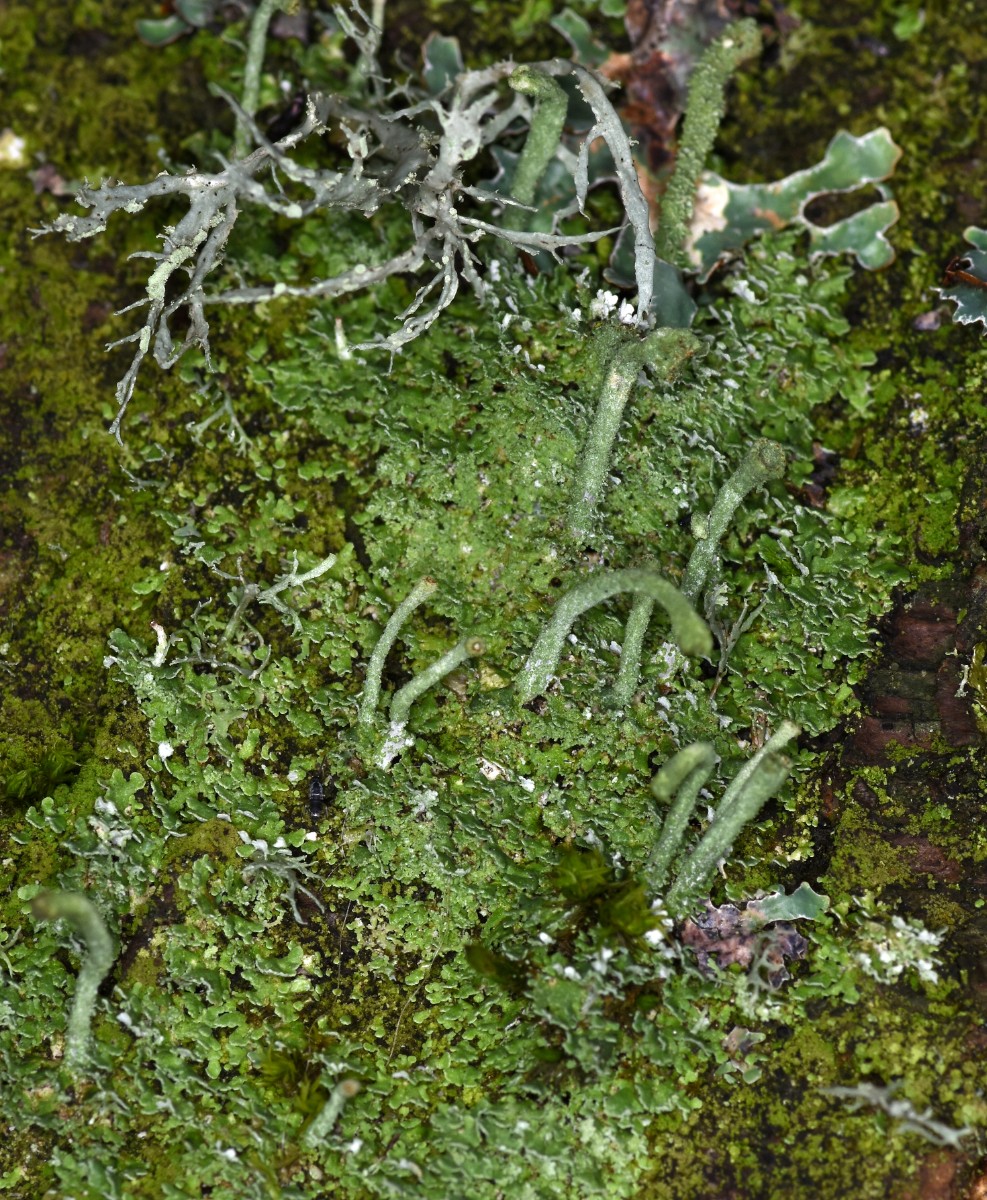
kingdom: Fungi
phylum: Ascomycota
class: Lecanoromycetes
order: Lecanorales
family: Cladoniaceae
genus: Cladonia
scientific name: Cladonia chlorophaea
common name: Mealy pixie cup
